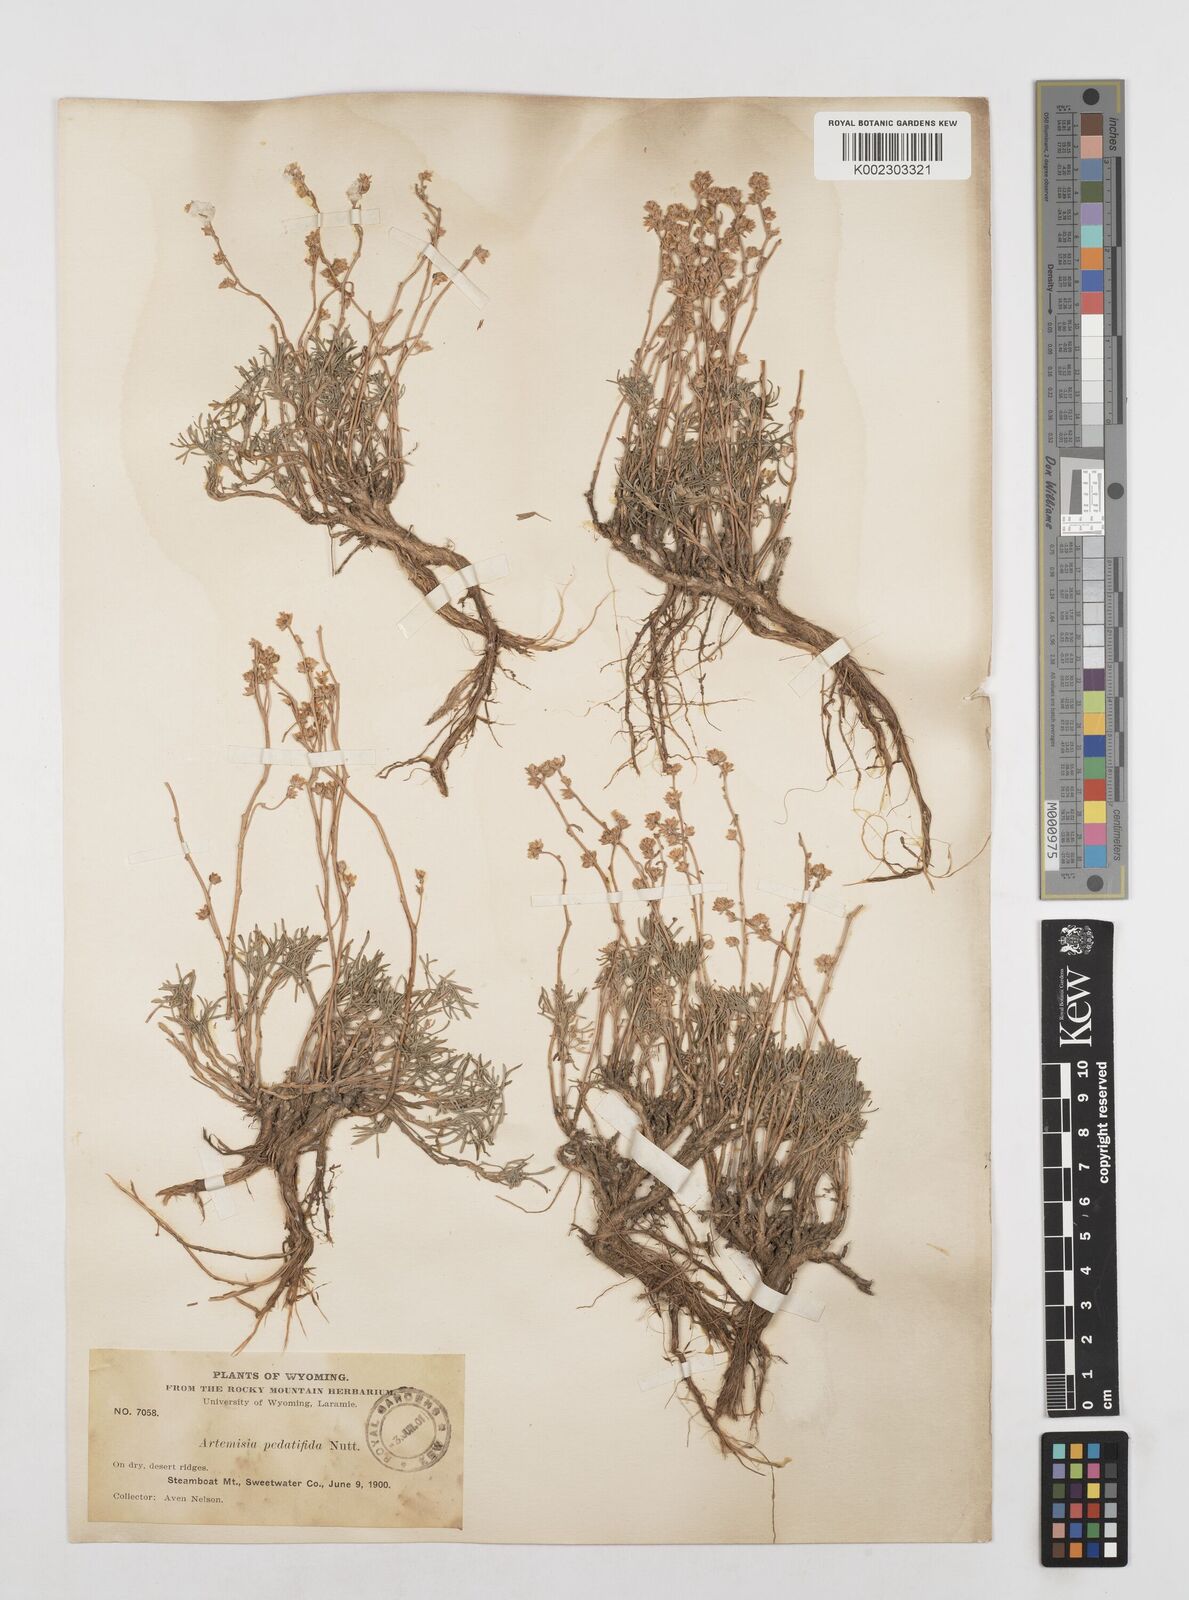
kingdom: Plantae
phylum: Tracheophyta
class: Magnoliopsida
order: Asterales
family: Asteraceae
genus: Artemisia
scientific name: Artemisia pedatifida
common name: Matted sagewort
